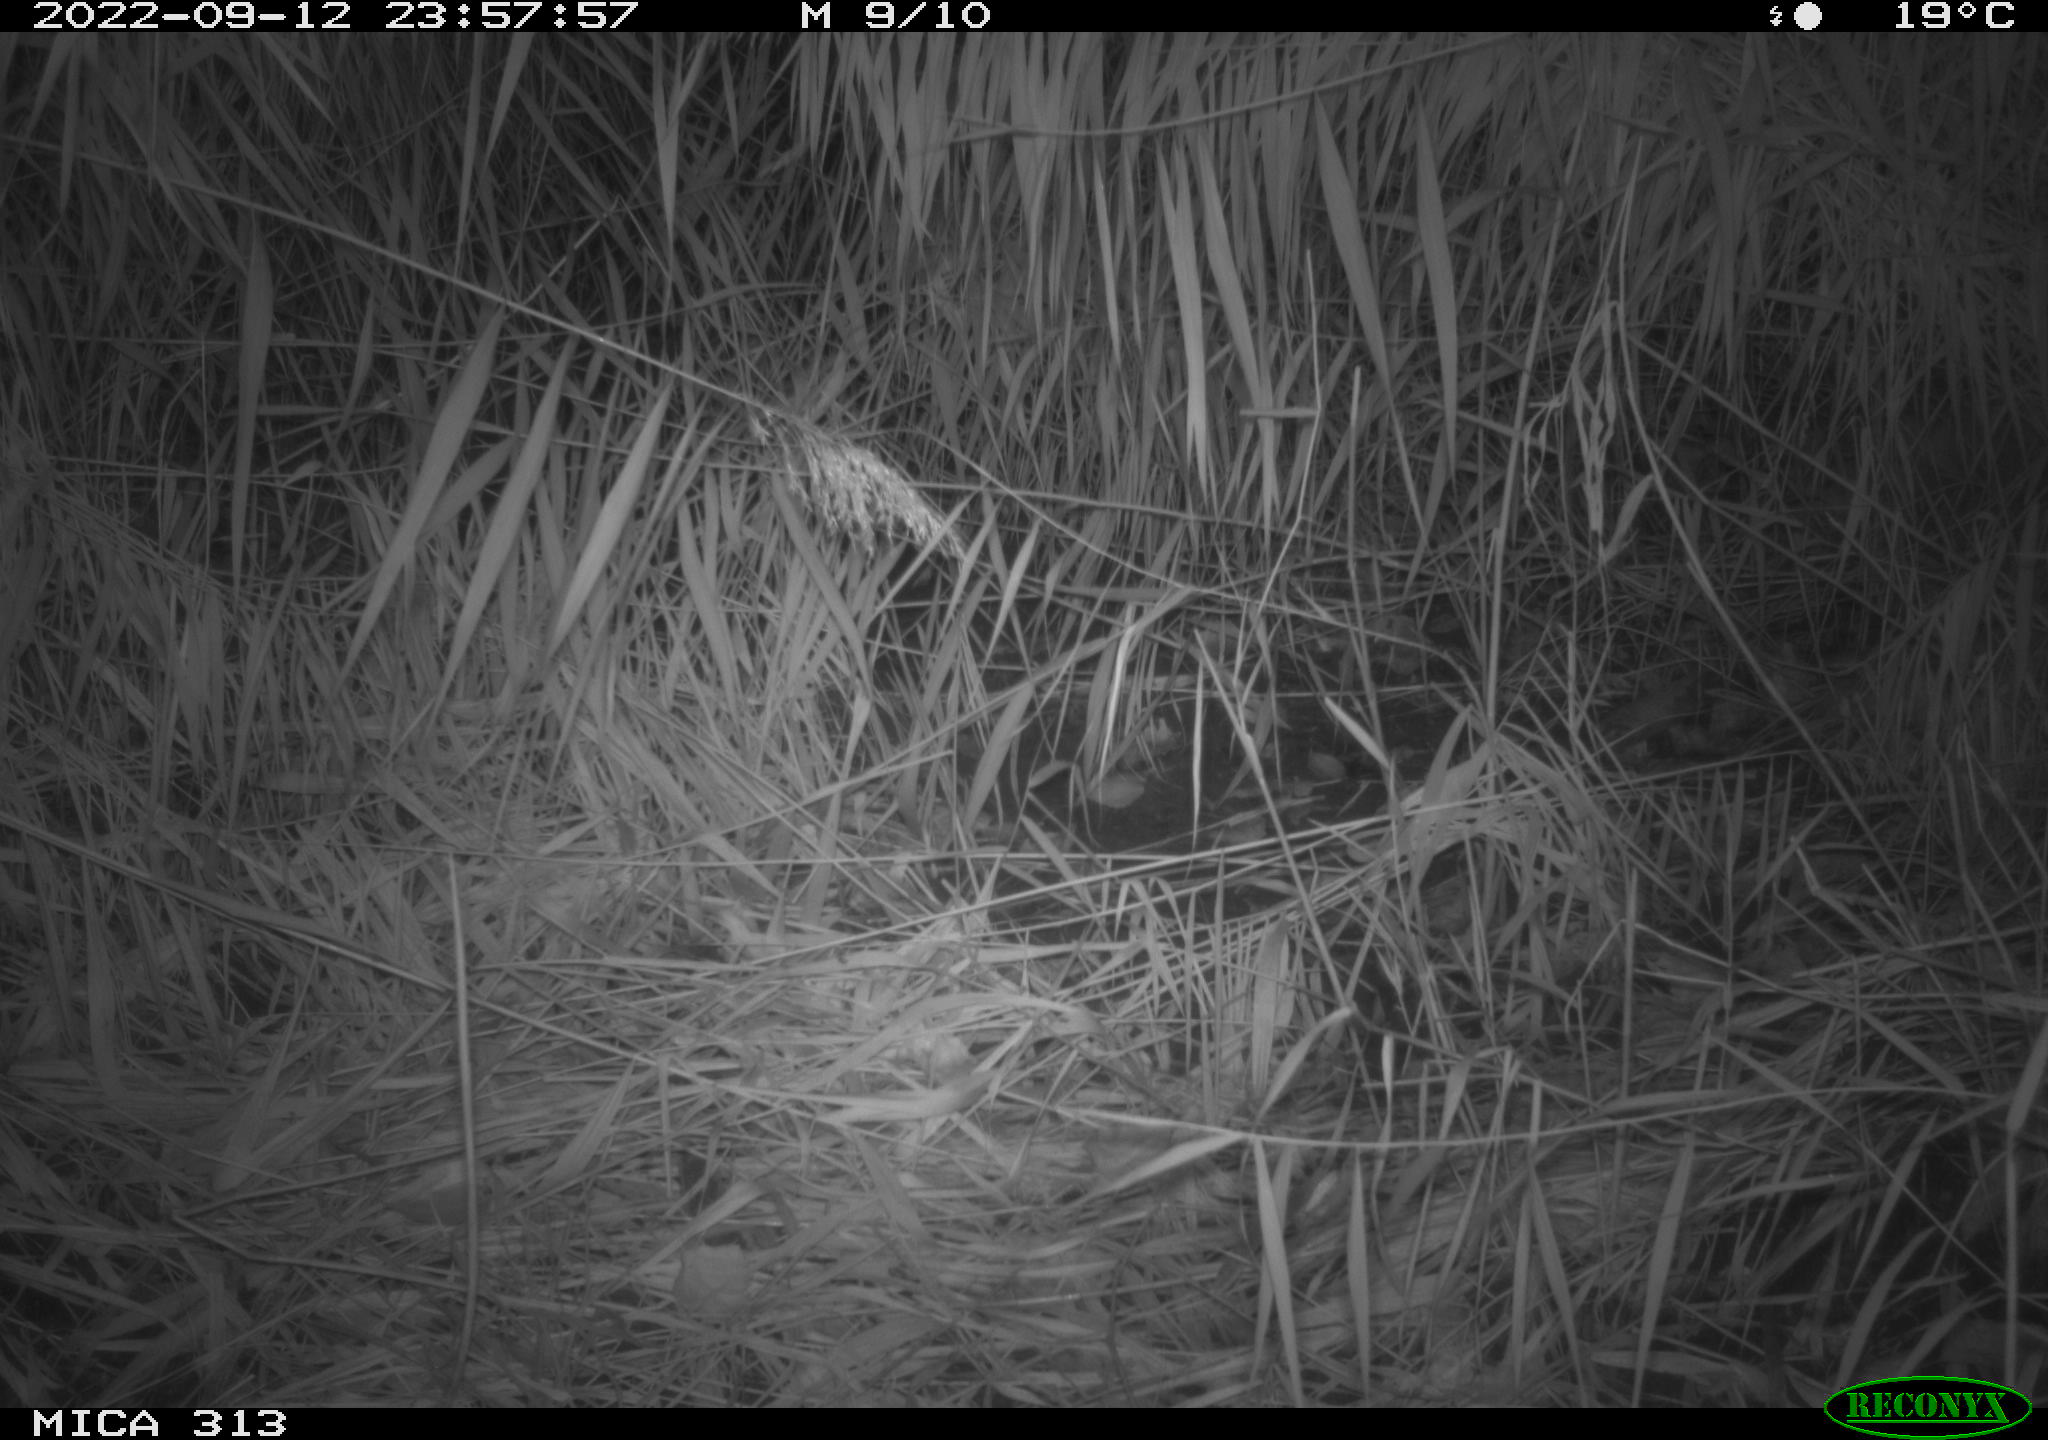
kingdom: Animalia
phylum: Chordata
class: Mammalia
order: Rodentia
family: Muridae
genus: Rattus
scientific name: Rattus norvegicus
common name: Brown rat
